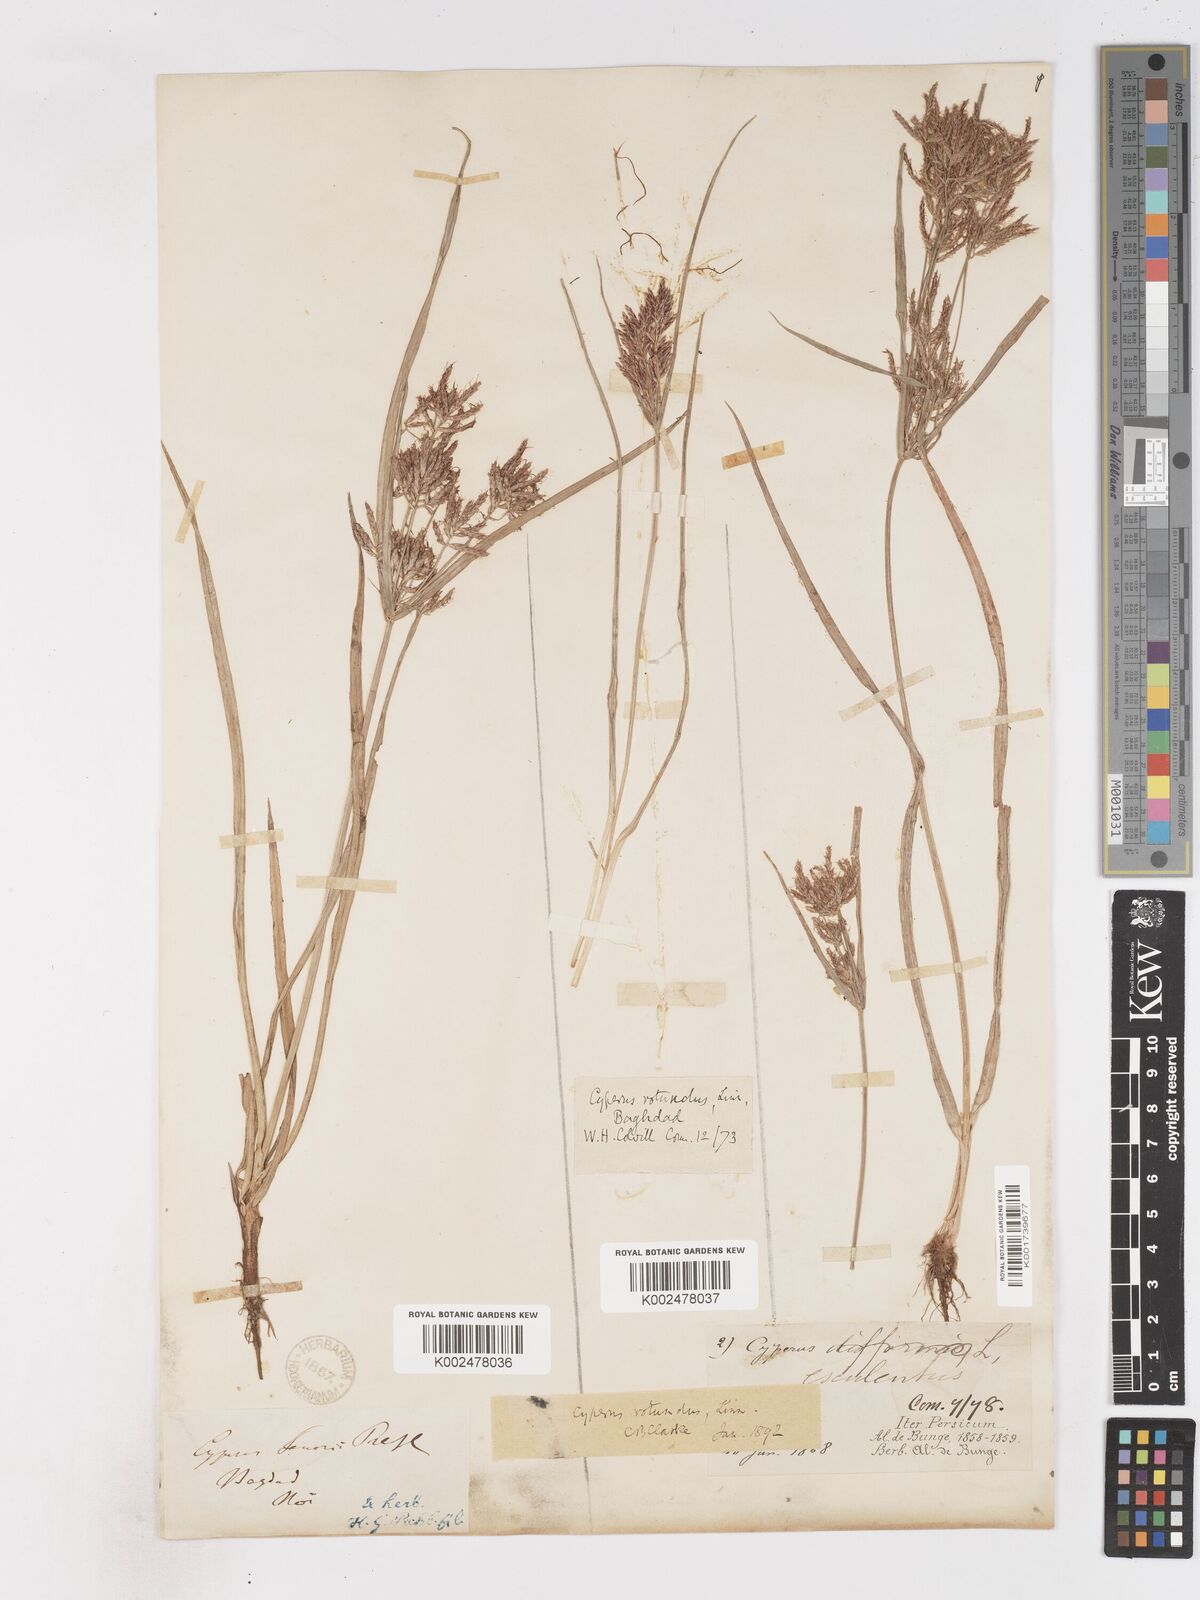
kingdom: Plantae
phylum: Tracheophyta
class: Liliopsida
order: Poales
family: Cyperaceae
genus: Cyperus
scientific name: Cyperus rotundus
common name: Nutgrass
